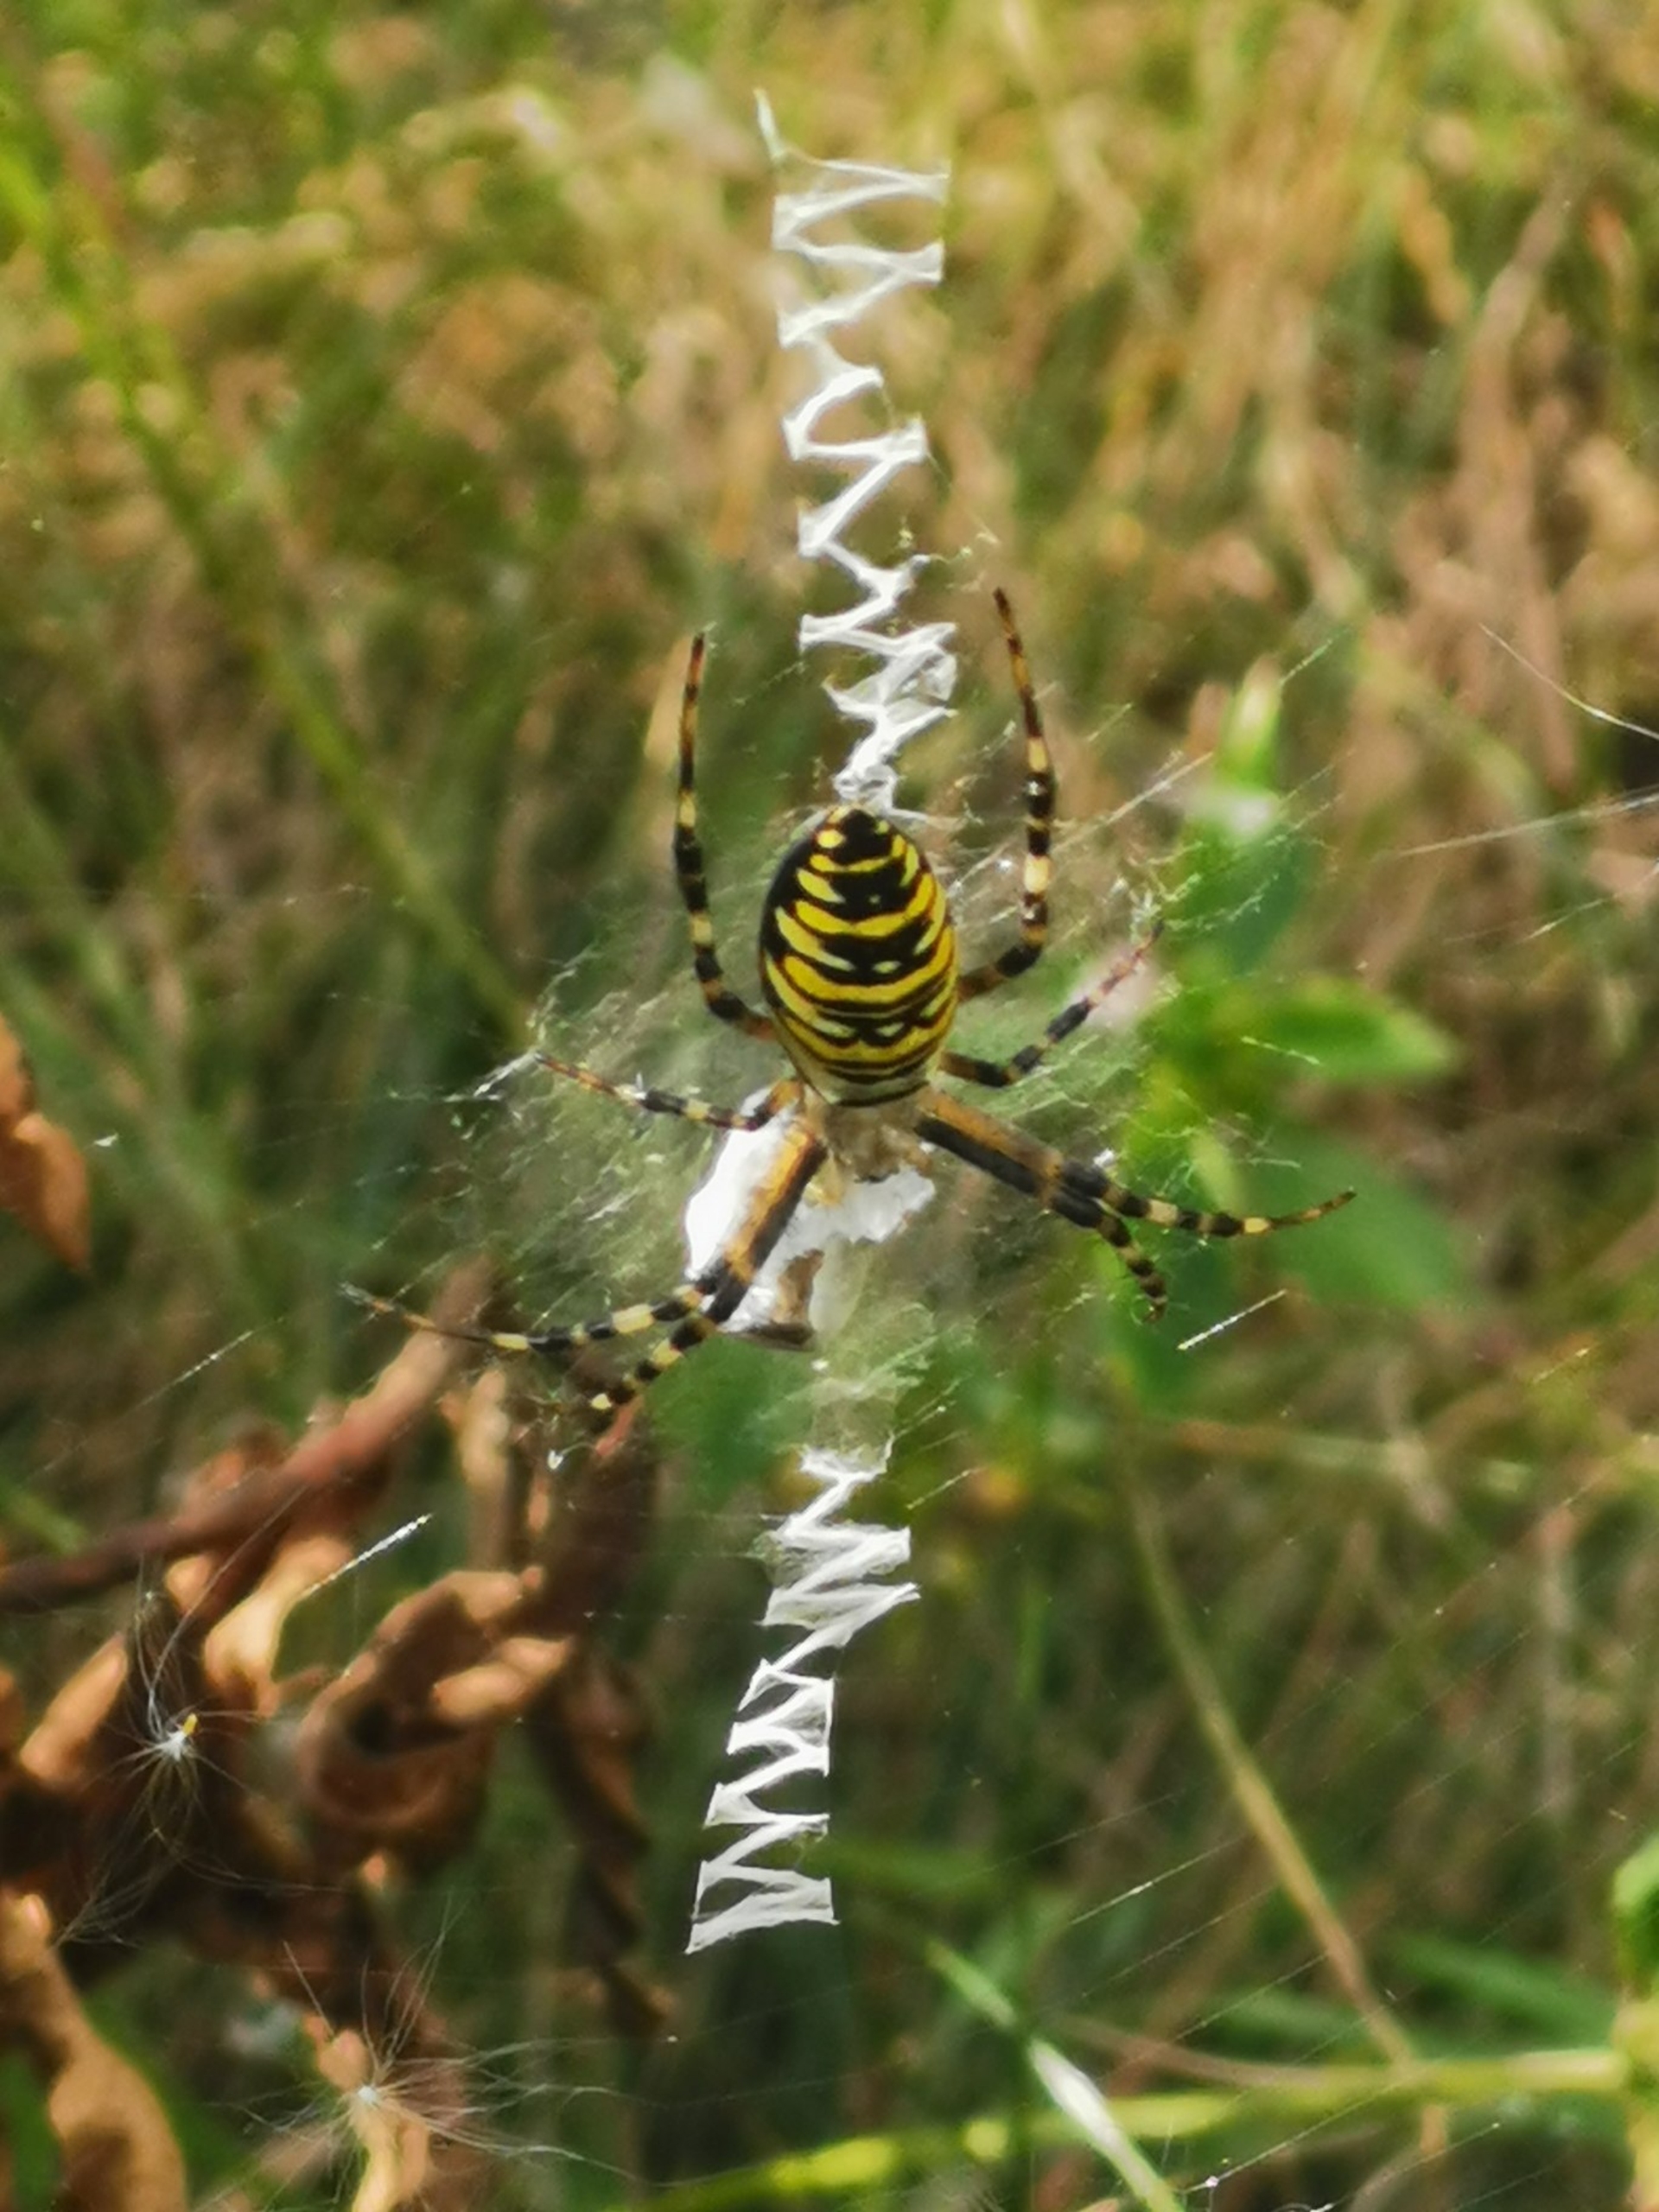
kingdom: Animalia
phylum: Arthropoda
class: Arachnida
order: Araneae
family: Araneidae
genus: Argiope
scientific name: Argiope bruennichi
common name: Hvepseedderkop
